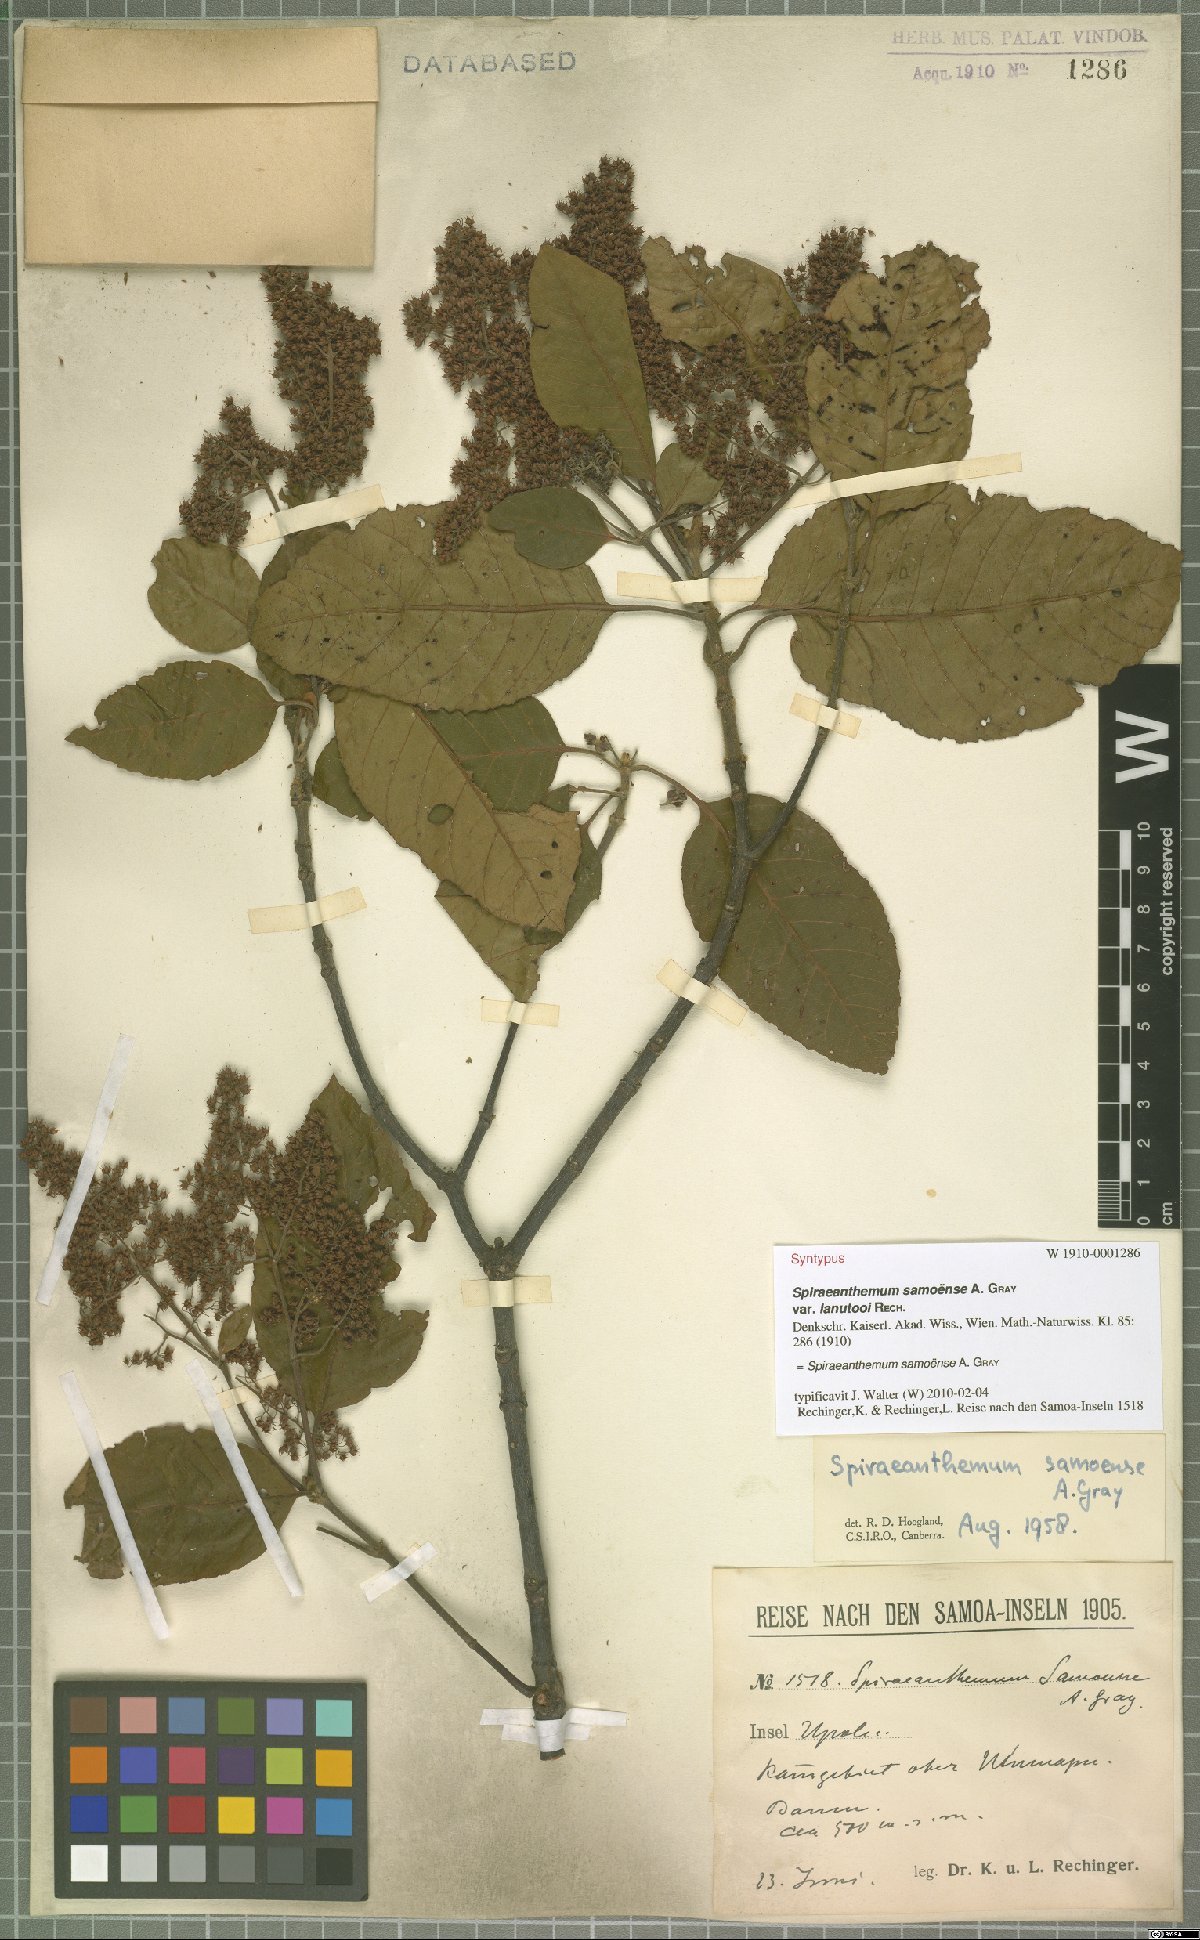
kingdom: Plantae
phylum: Tracheophyta
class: Magnoliopsida
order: Oxalidales
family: Cunoniaceae
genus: Spiraeanthemum
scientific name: Spiraeanthemum samoense
